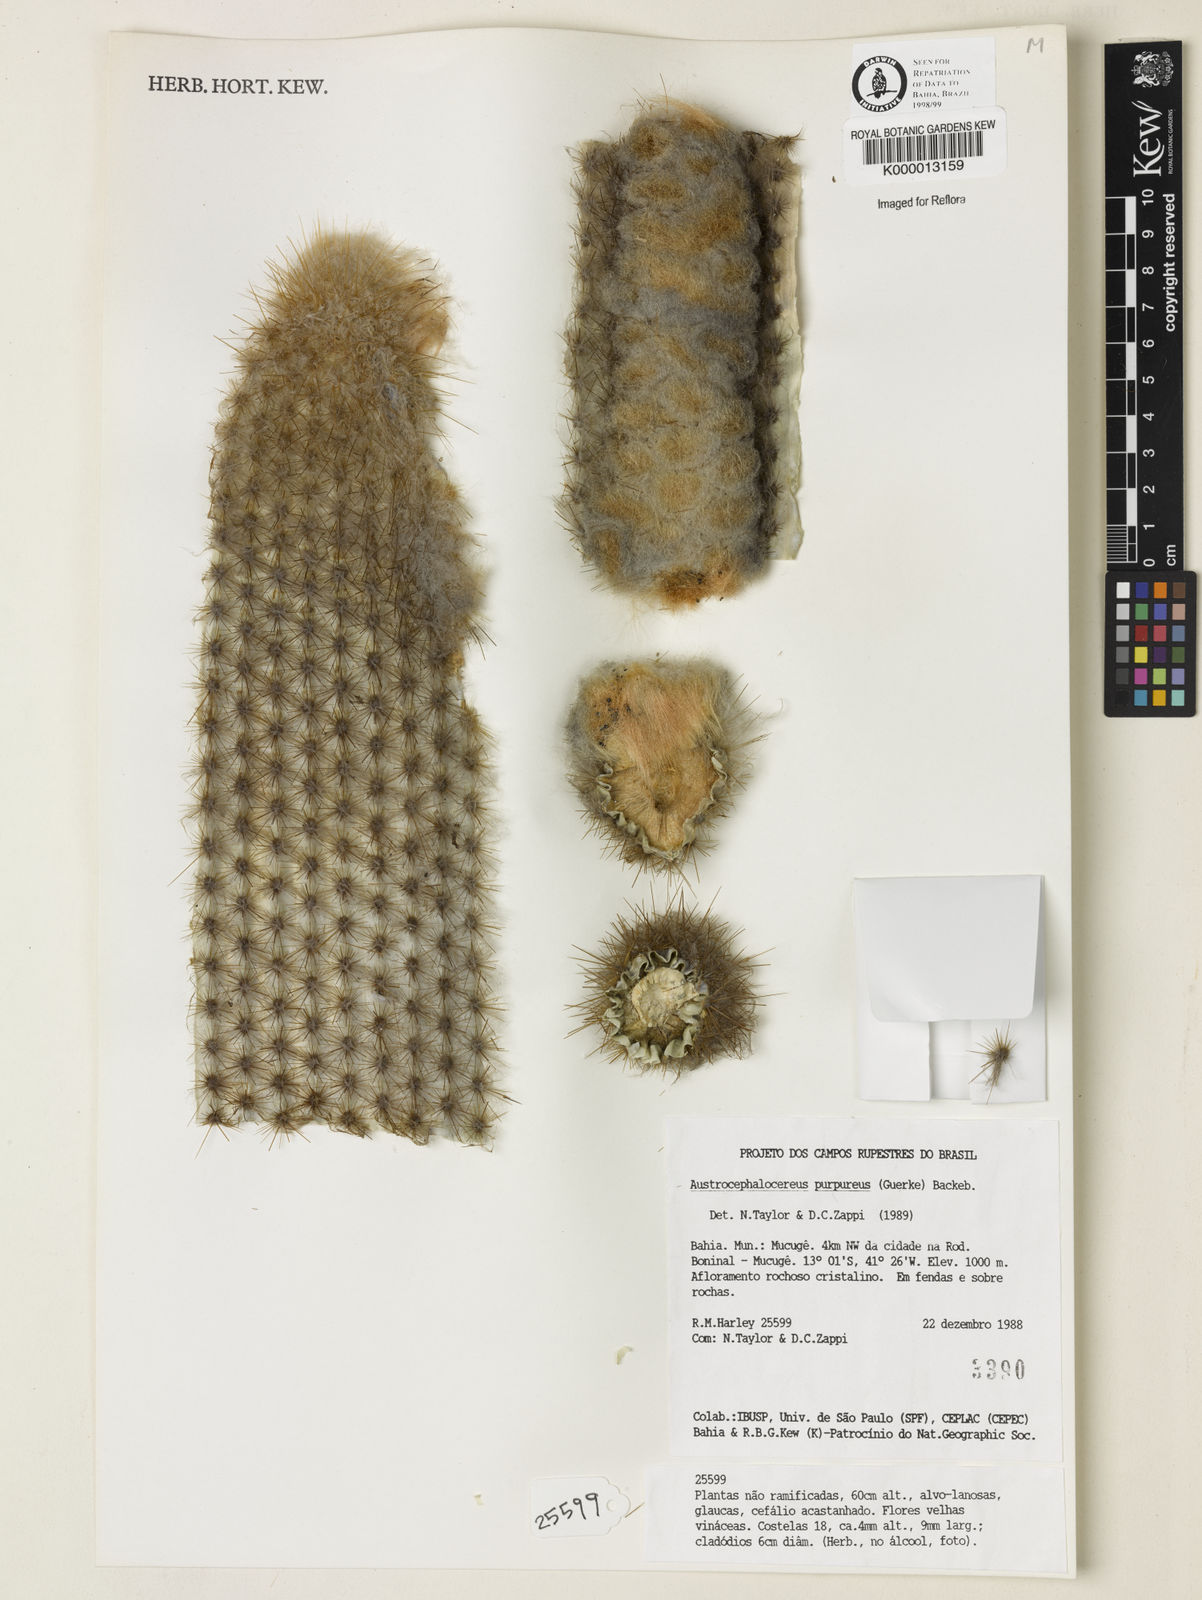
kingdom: Plantae
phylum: Tracheophyta
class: Magnoliopsida
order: Caryophyllales
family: Cactaceae
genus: Micranthocereus
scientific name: Micranthocereus purpureus
